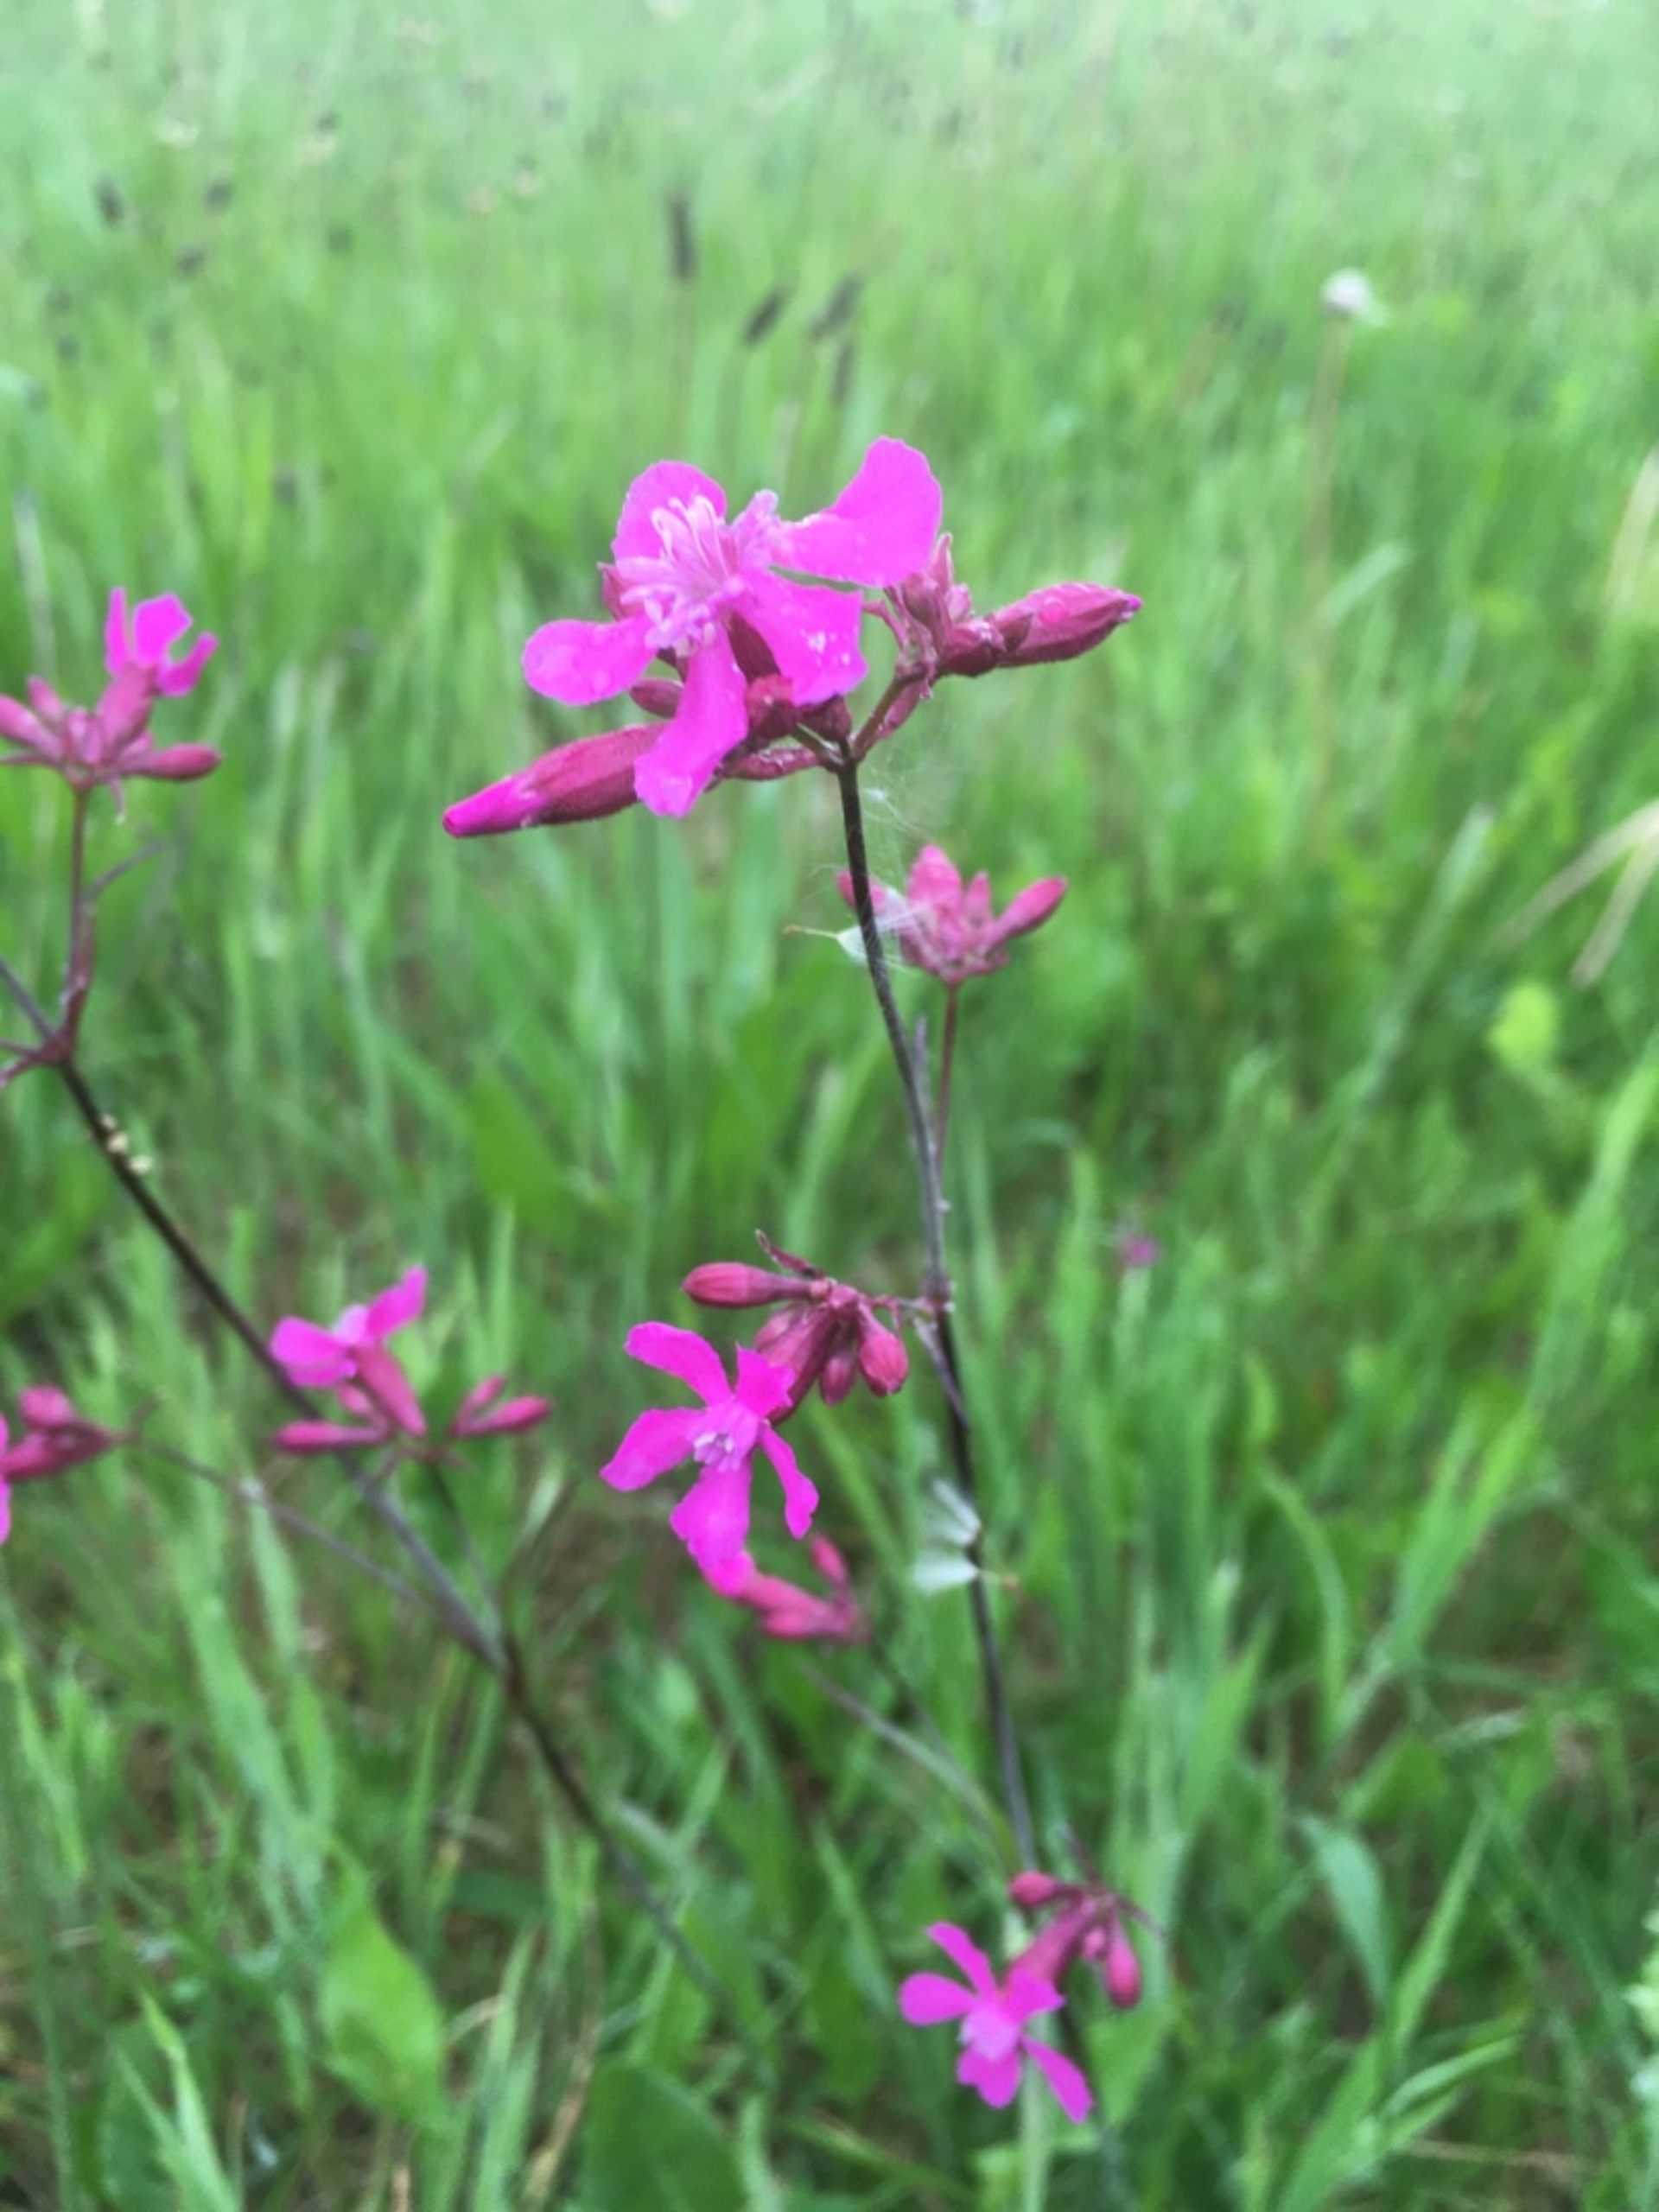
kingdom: Plantae
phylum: Tracheophyta
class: Magnoliopsida
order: Caryophyllales
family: Caryophyllaceae
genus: Viscaria
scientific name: Viscaria vulgaris
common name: Tjærenellike
